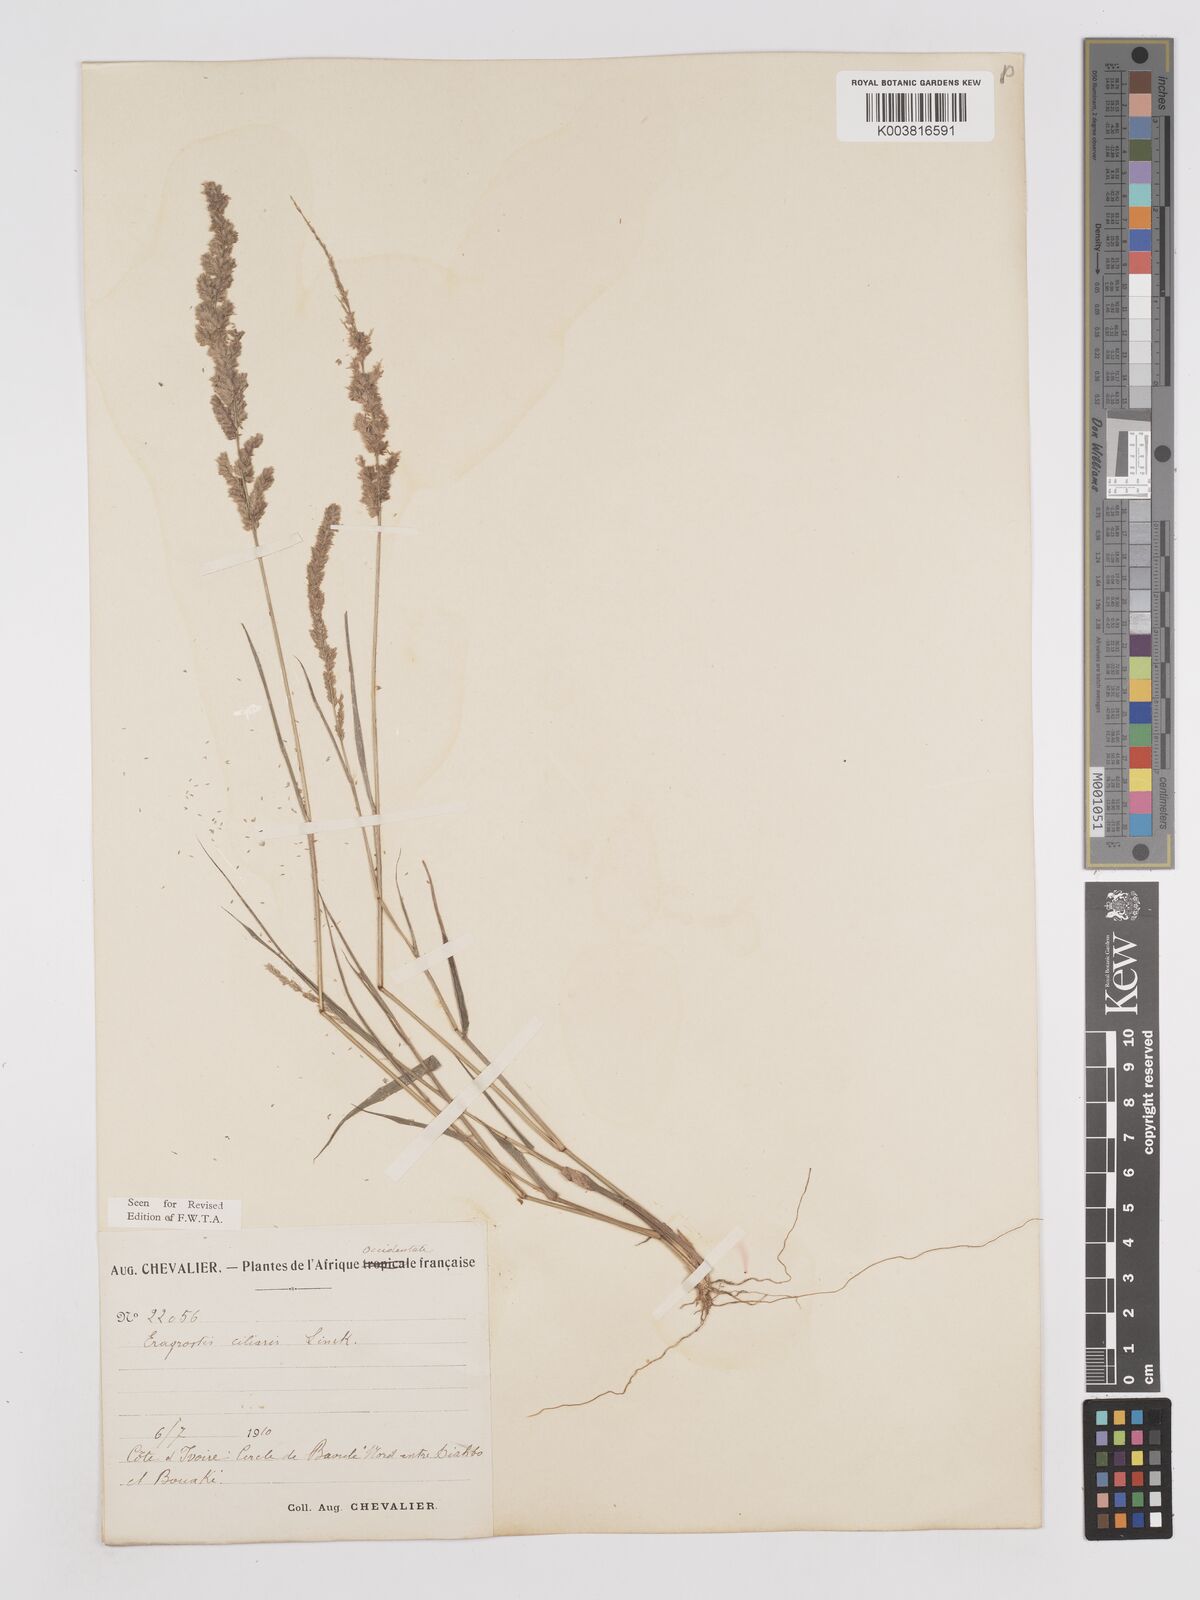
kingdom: Plantae
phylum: Tracheophyta
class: Liliopsida
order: Poales
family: Poaceae
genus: Eragrostis
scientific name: Eragrostis ciliaris
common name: Gophertail lovegrass
